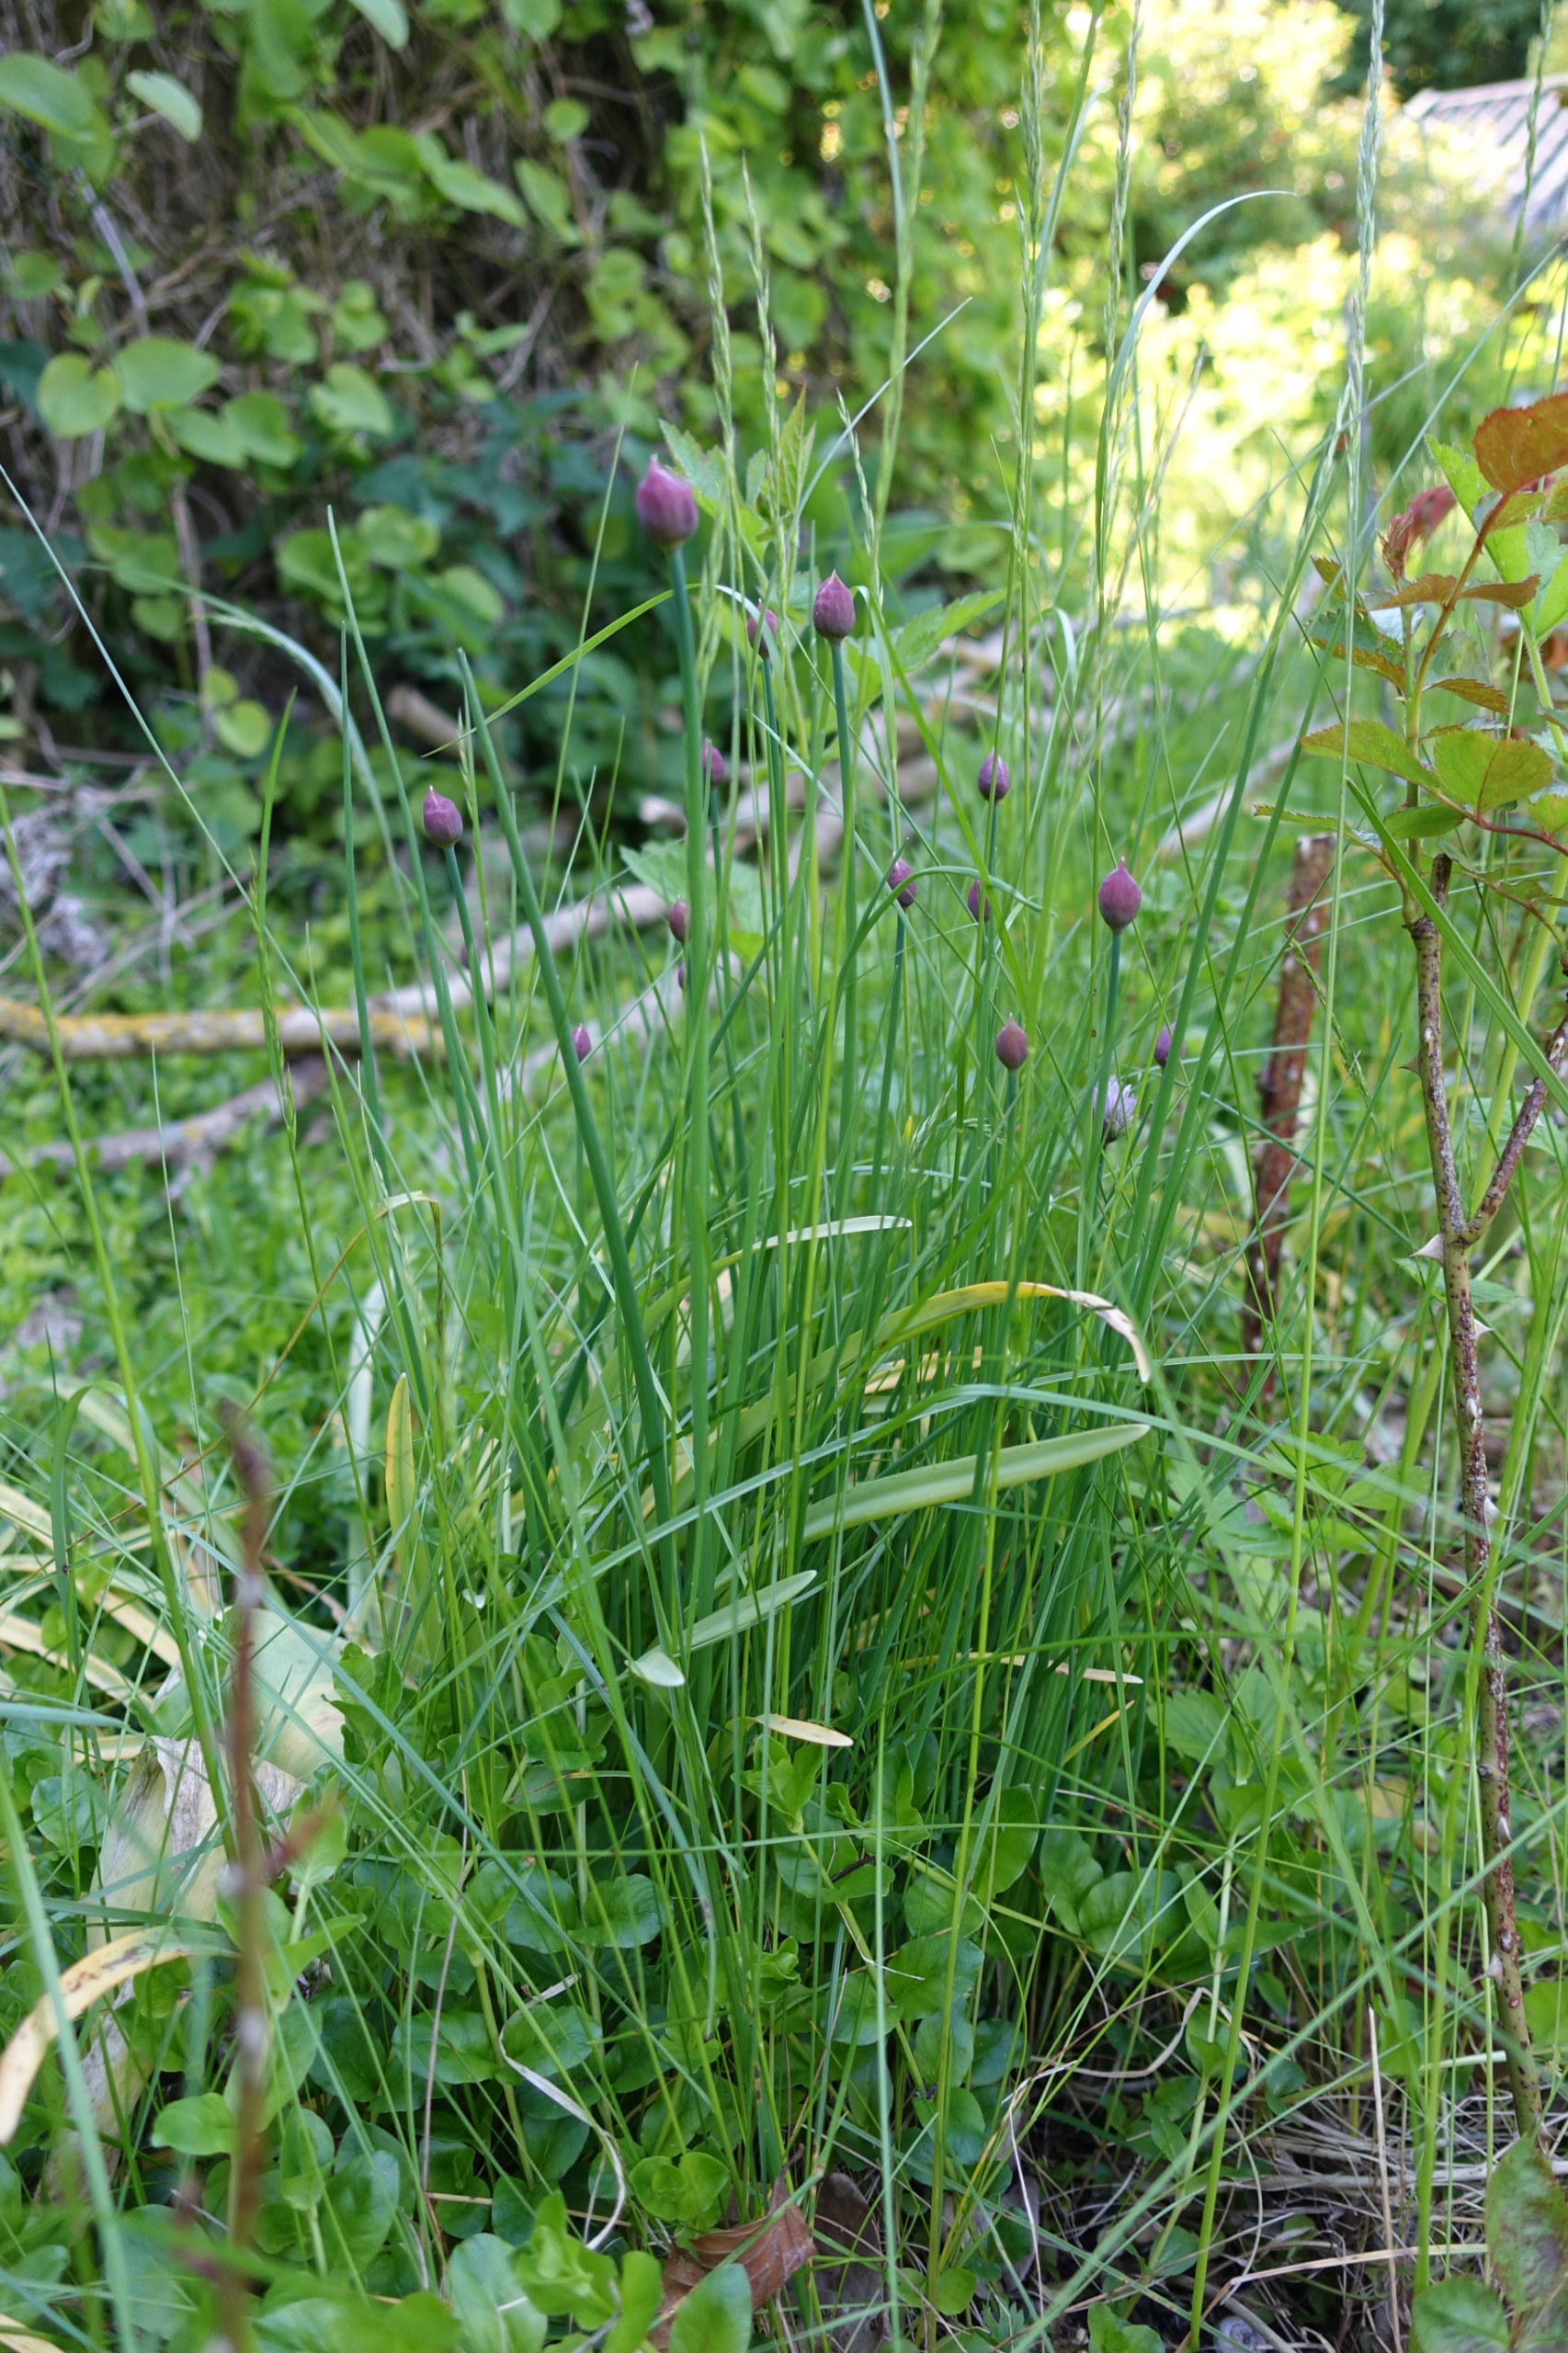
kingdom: Plantae
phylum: Tracheophyta
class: Liliopsida
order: Asparagales
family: Amaryllidaceae
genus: Allium
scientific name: Allium schoenoprasum
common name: Pur-løg
